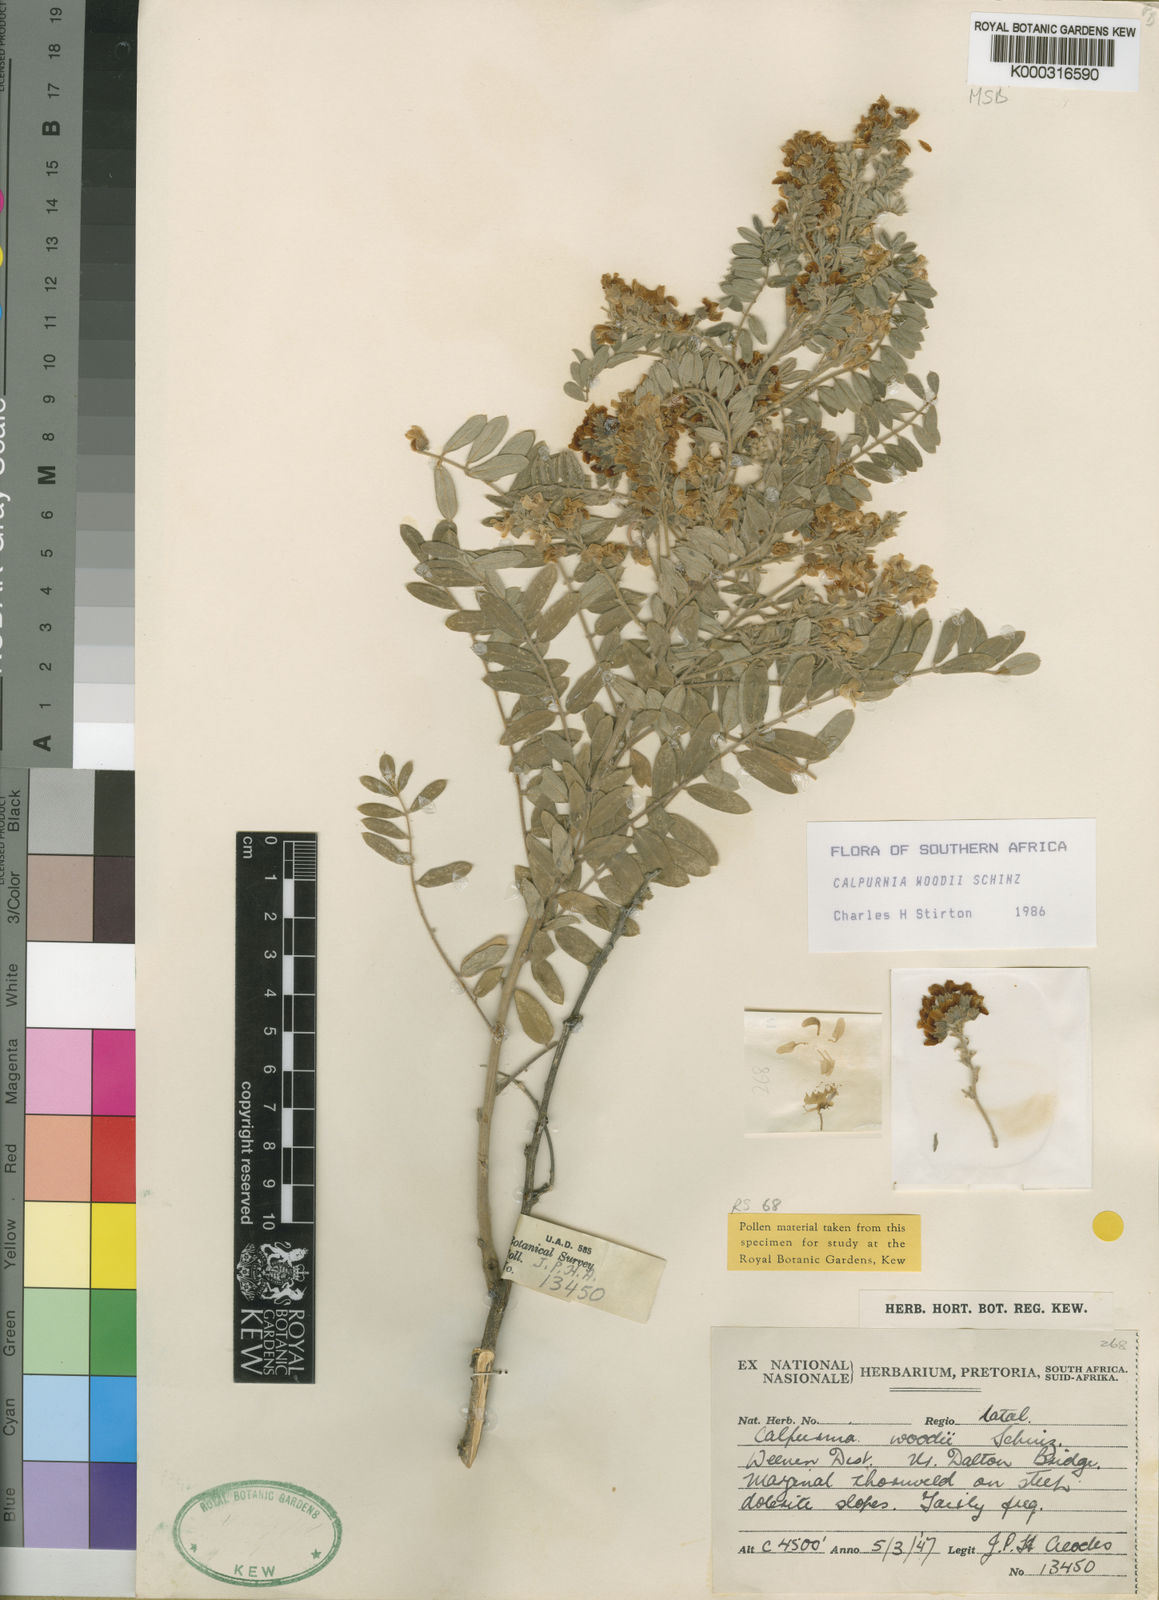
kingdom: Plantae
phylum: Tracheophyta
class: Magnoliopsida
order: Fabales
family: Fabaceae
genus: Calpurnia
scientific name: Calpurnia woodii
